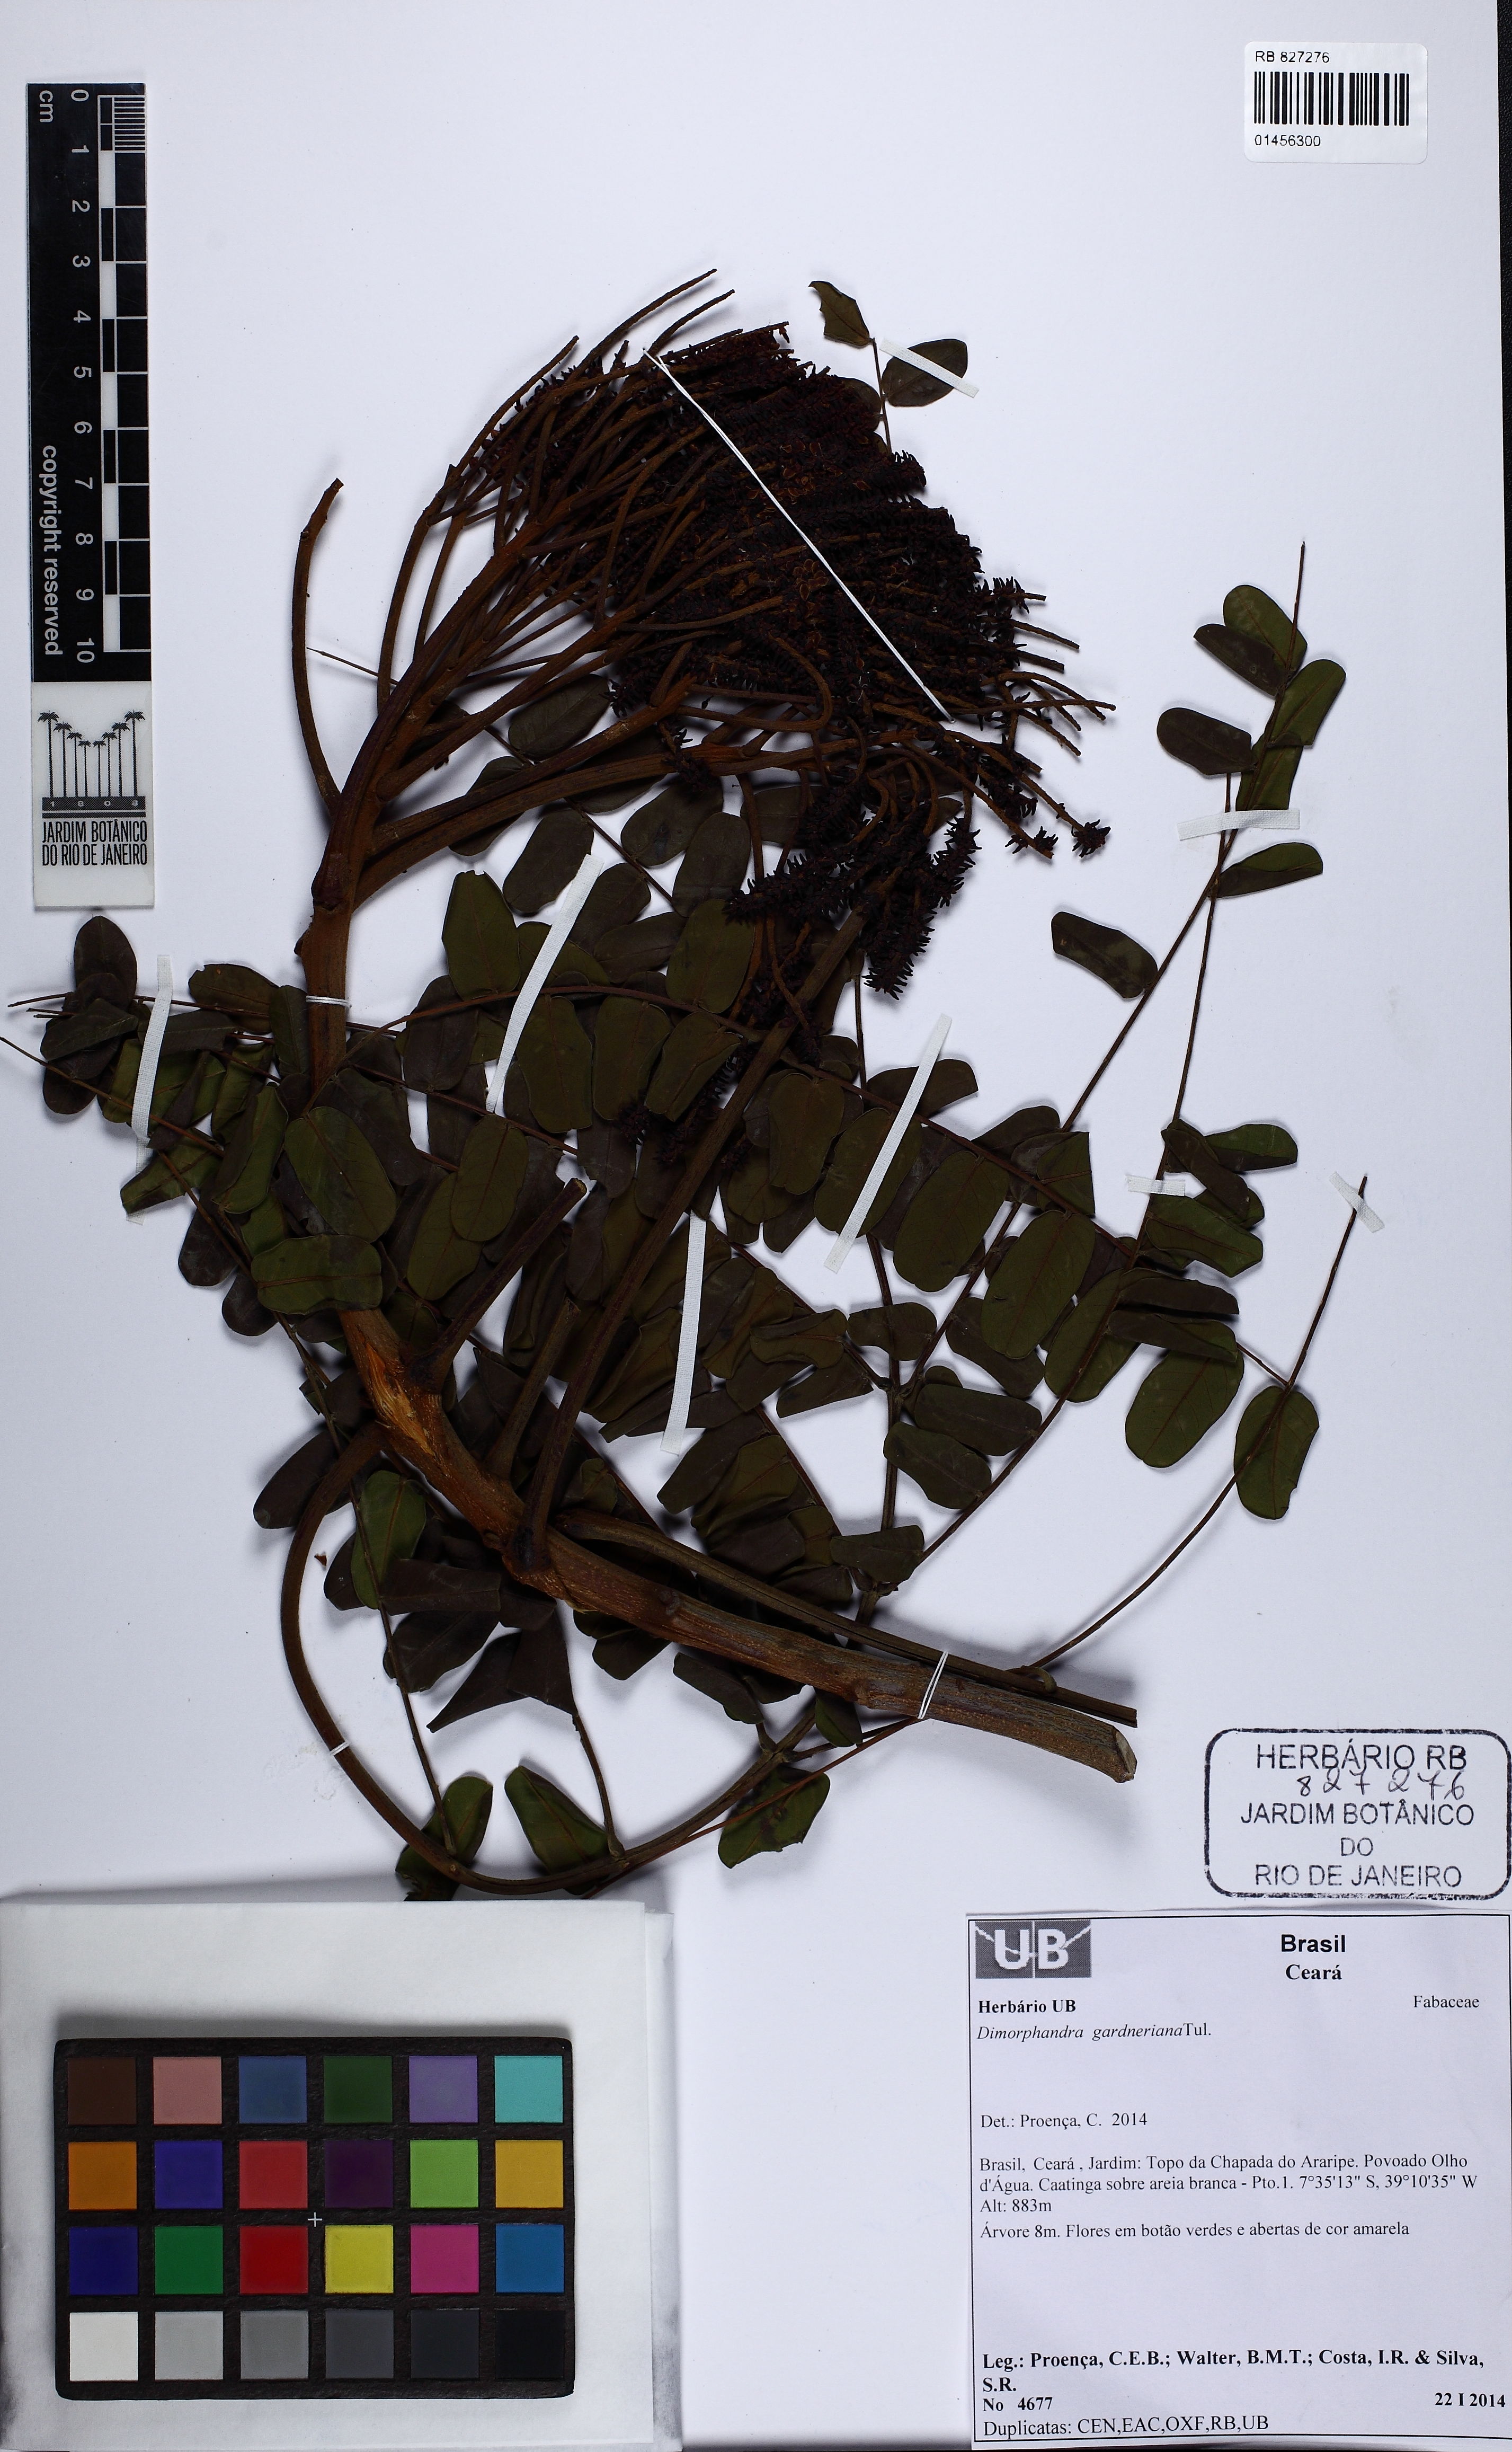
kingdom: Plantae
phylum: Tracheophyta
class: Magnoliopsida
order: Fabales
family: Fabaceae
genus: Dimorphandra
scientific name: Dimorphandra gardneriana
